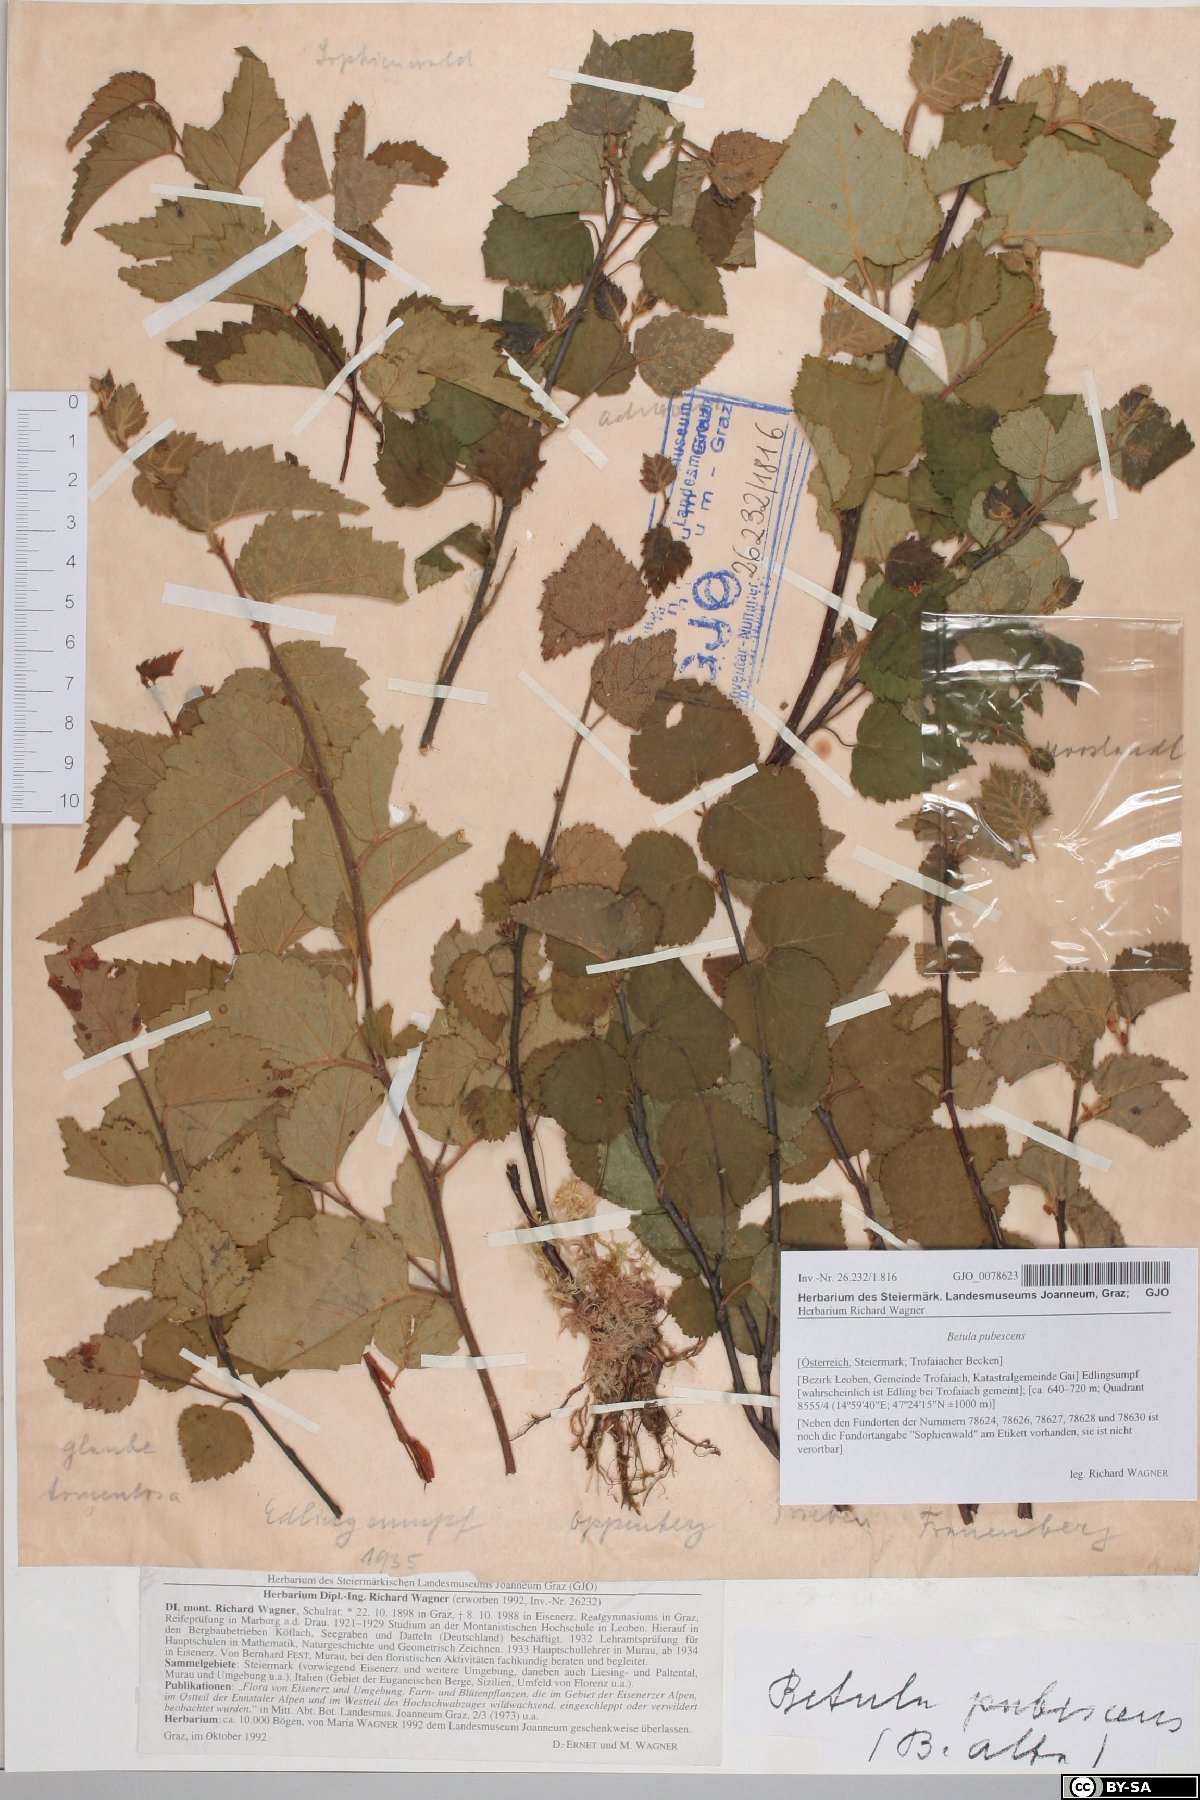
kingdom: Plantae
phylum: Tracheophyta
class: Magnoliopsida
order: Fagales
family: Betulaceae
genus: Betula
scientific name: Betula pubescens
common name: Downy birch
